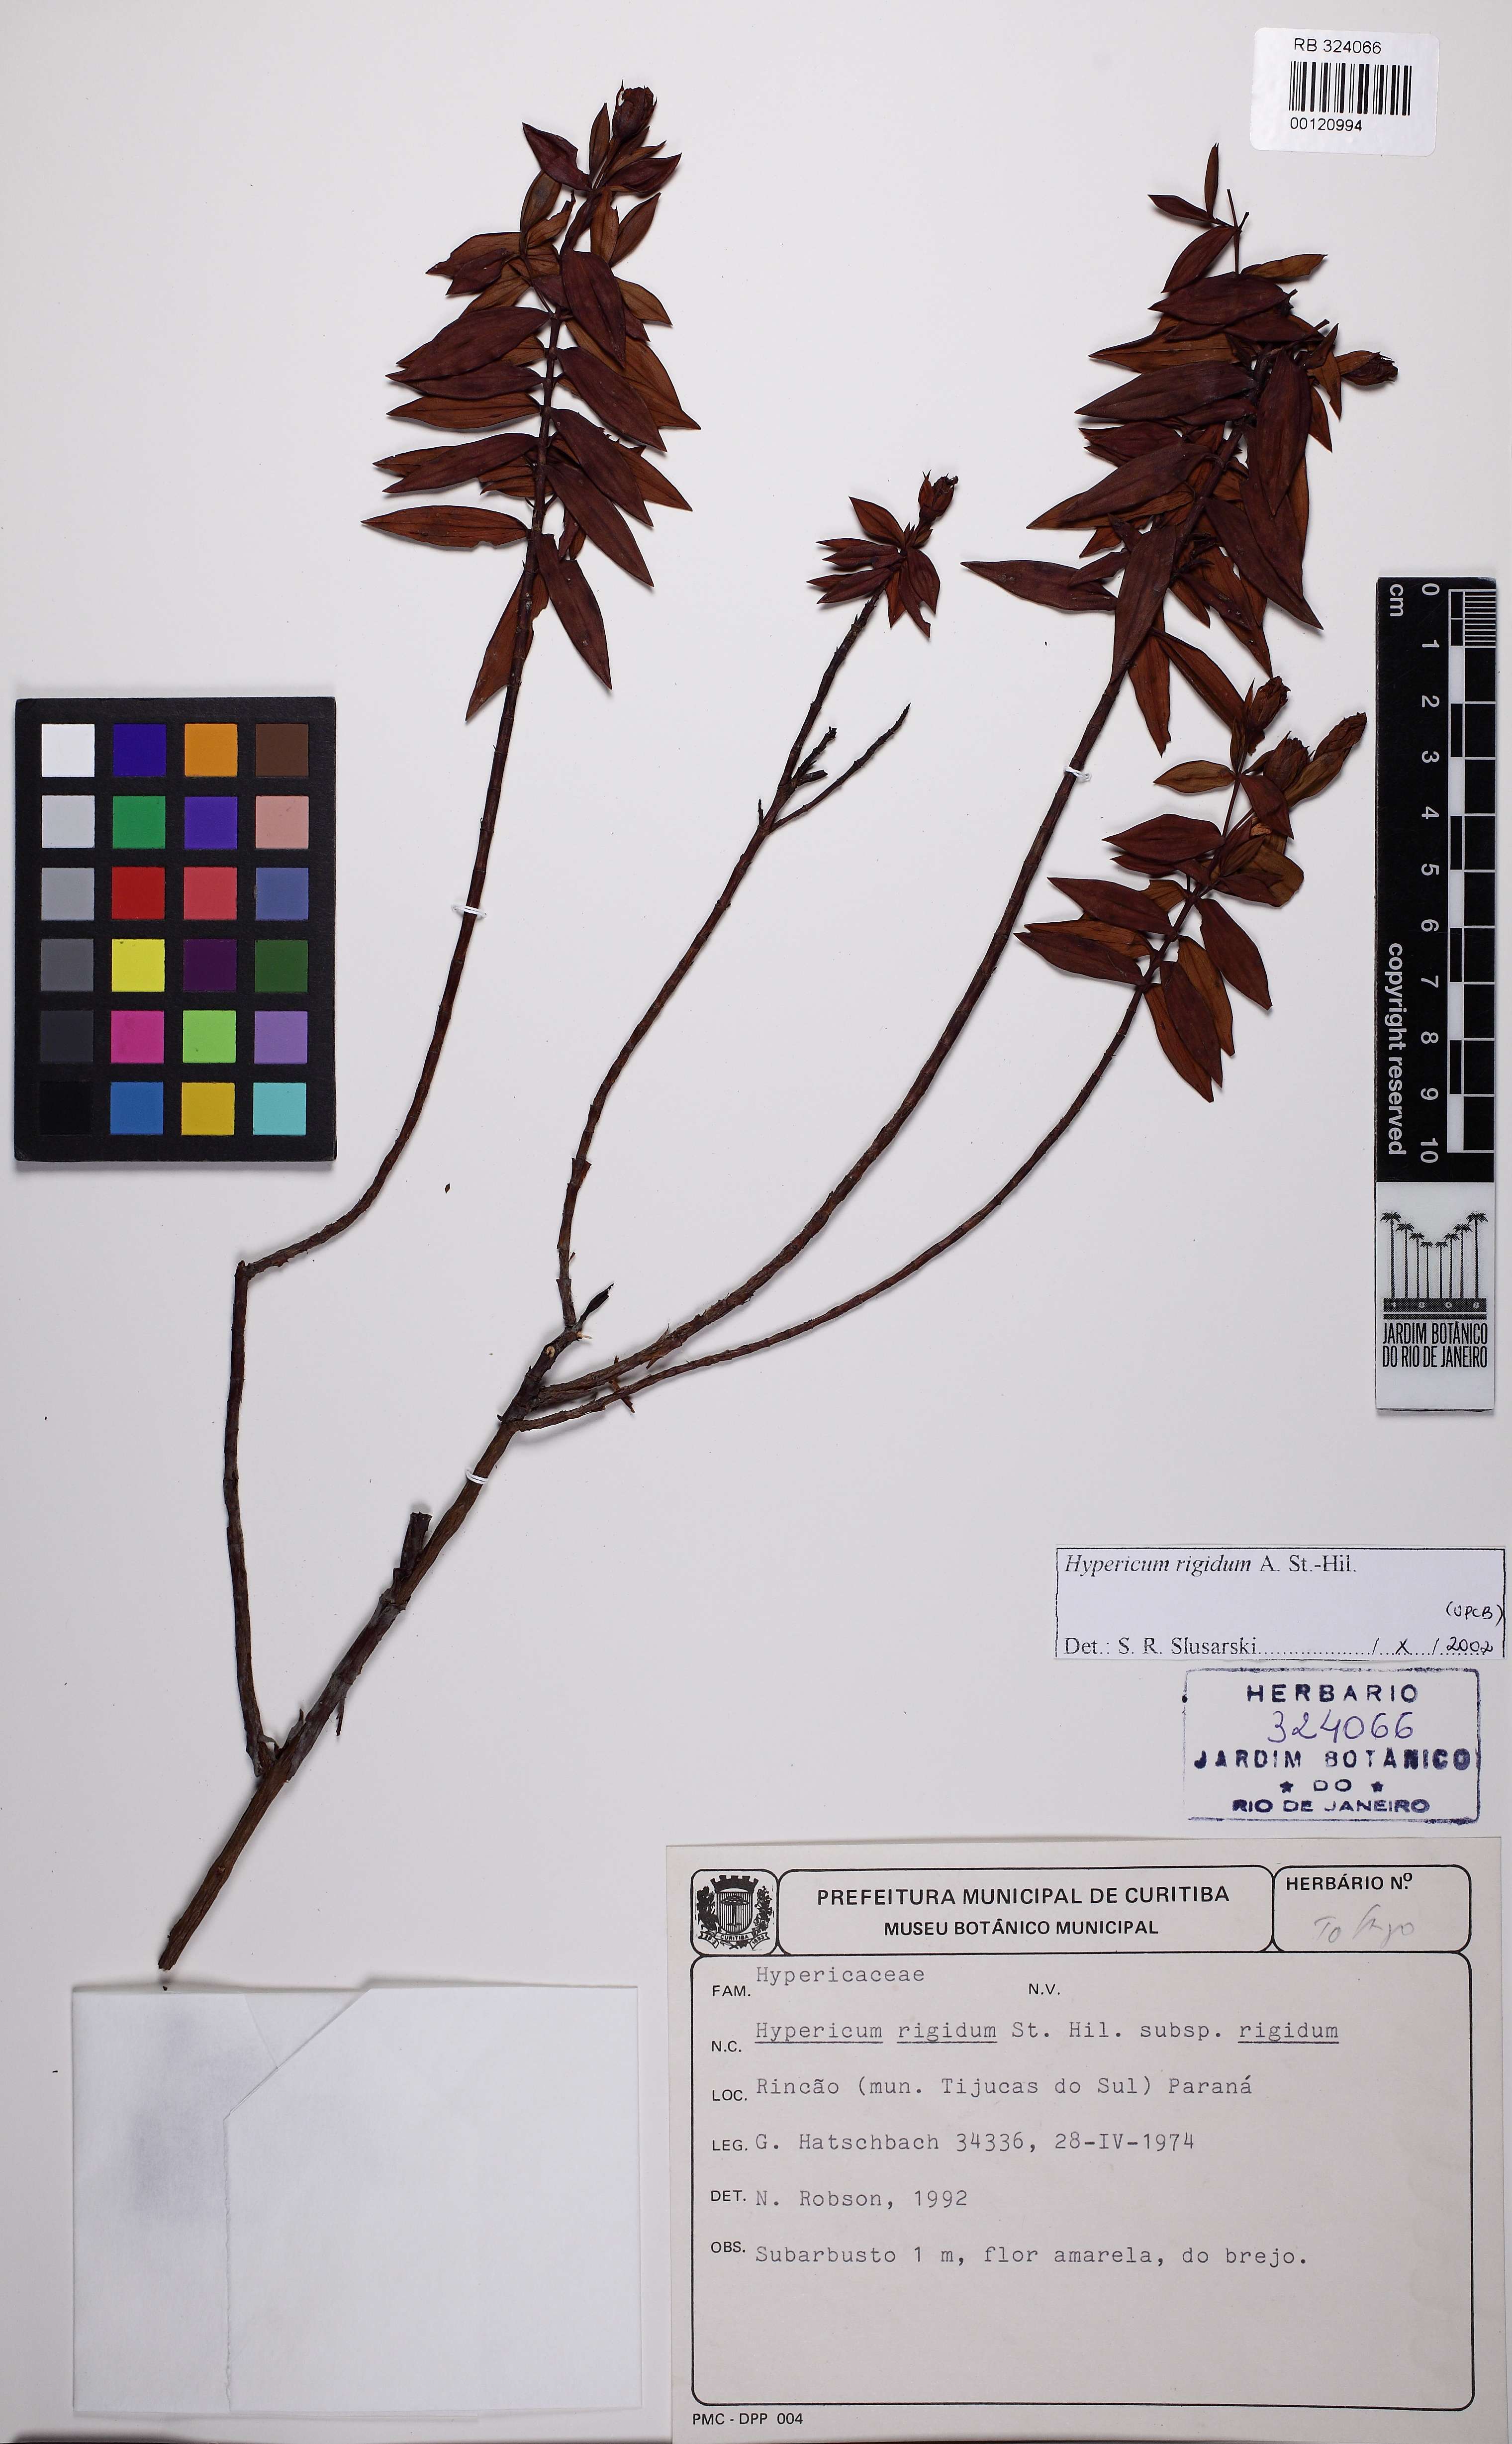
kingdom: Plantae
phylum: Tracheophyta
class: Magnoliopsida
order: Malpighiales
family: Hypericaceae
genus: Hypericum
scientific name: Hypericum rigidum
